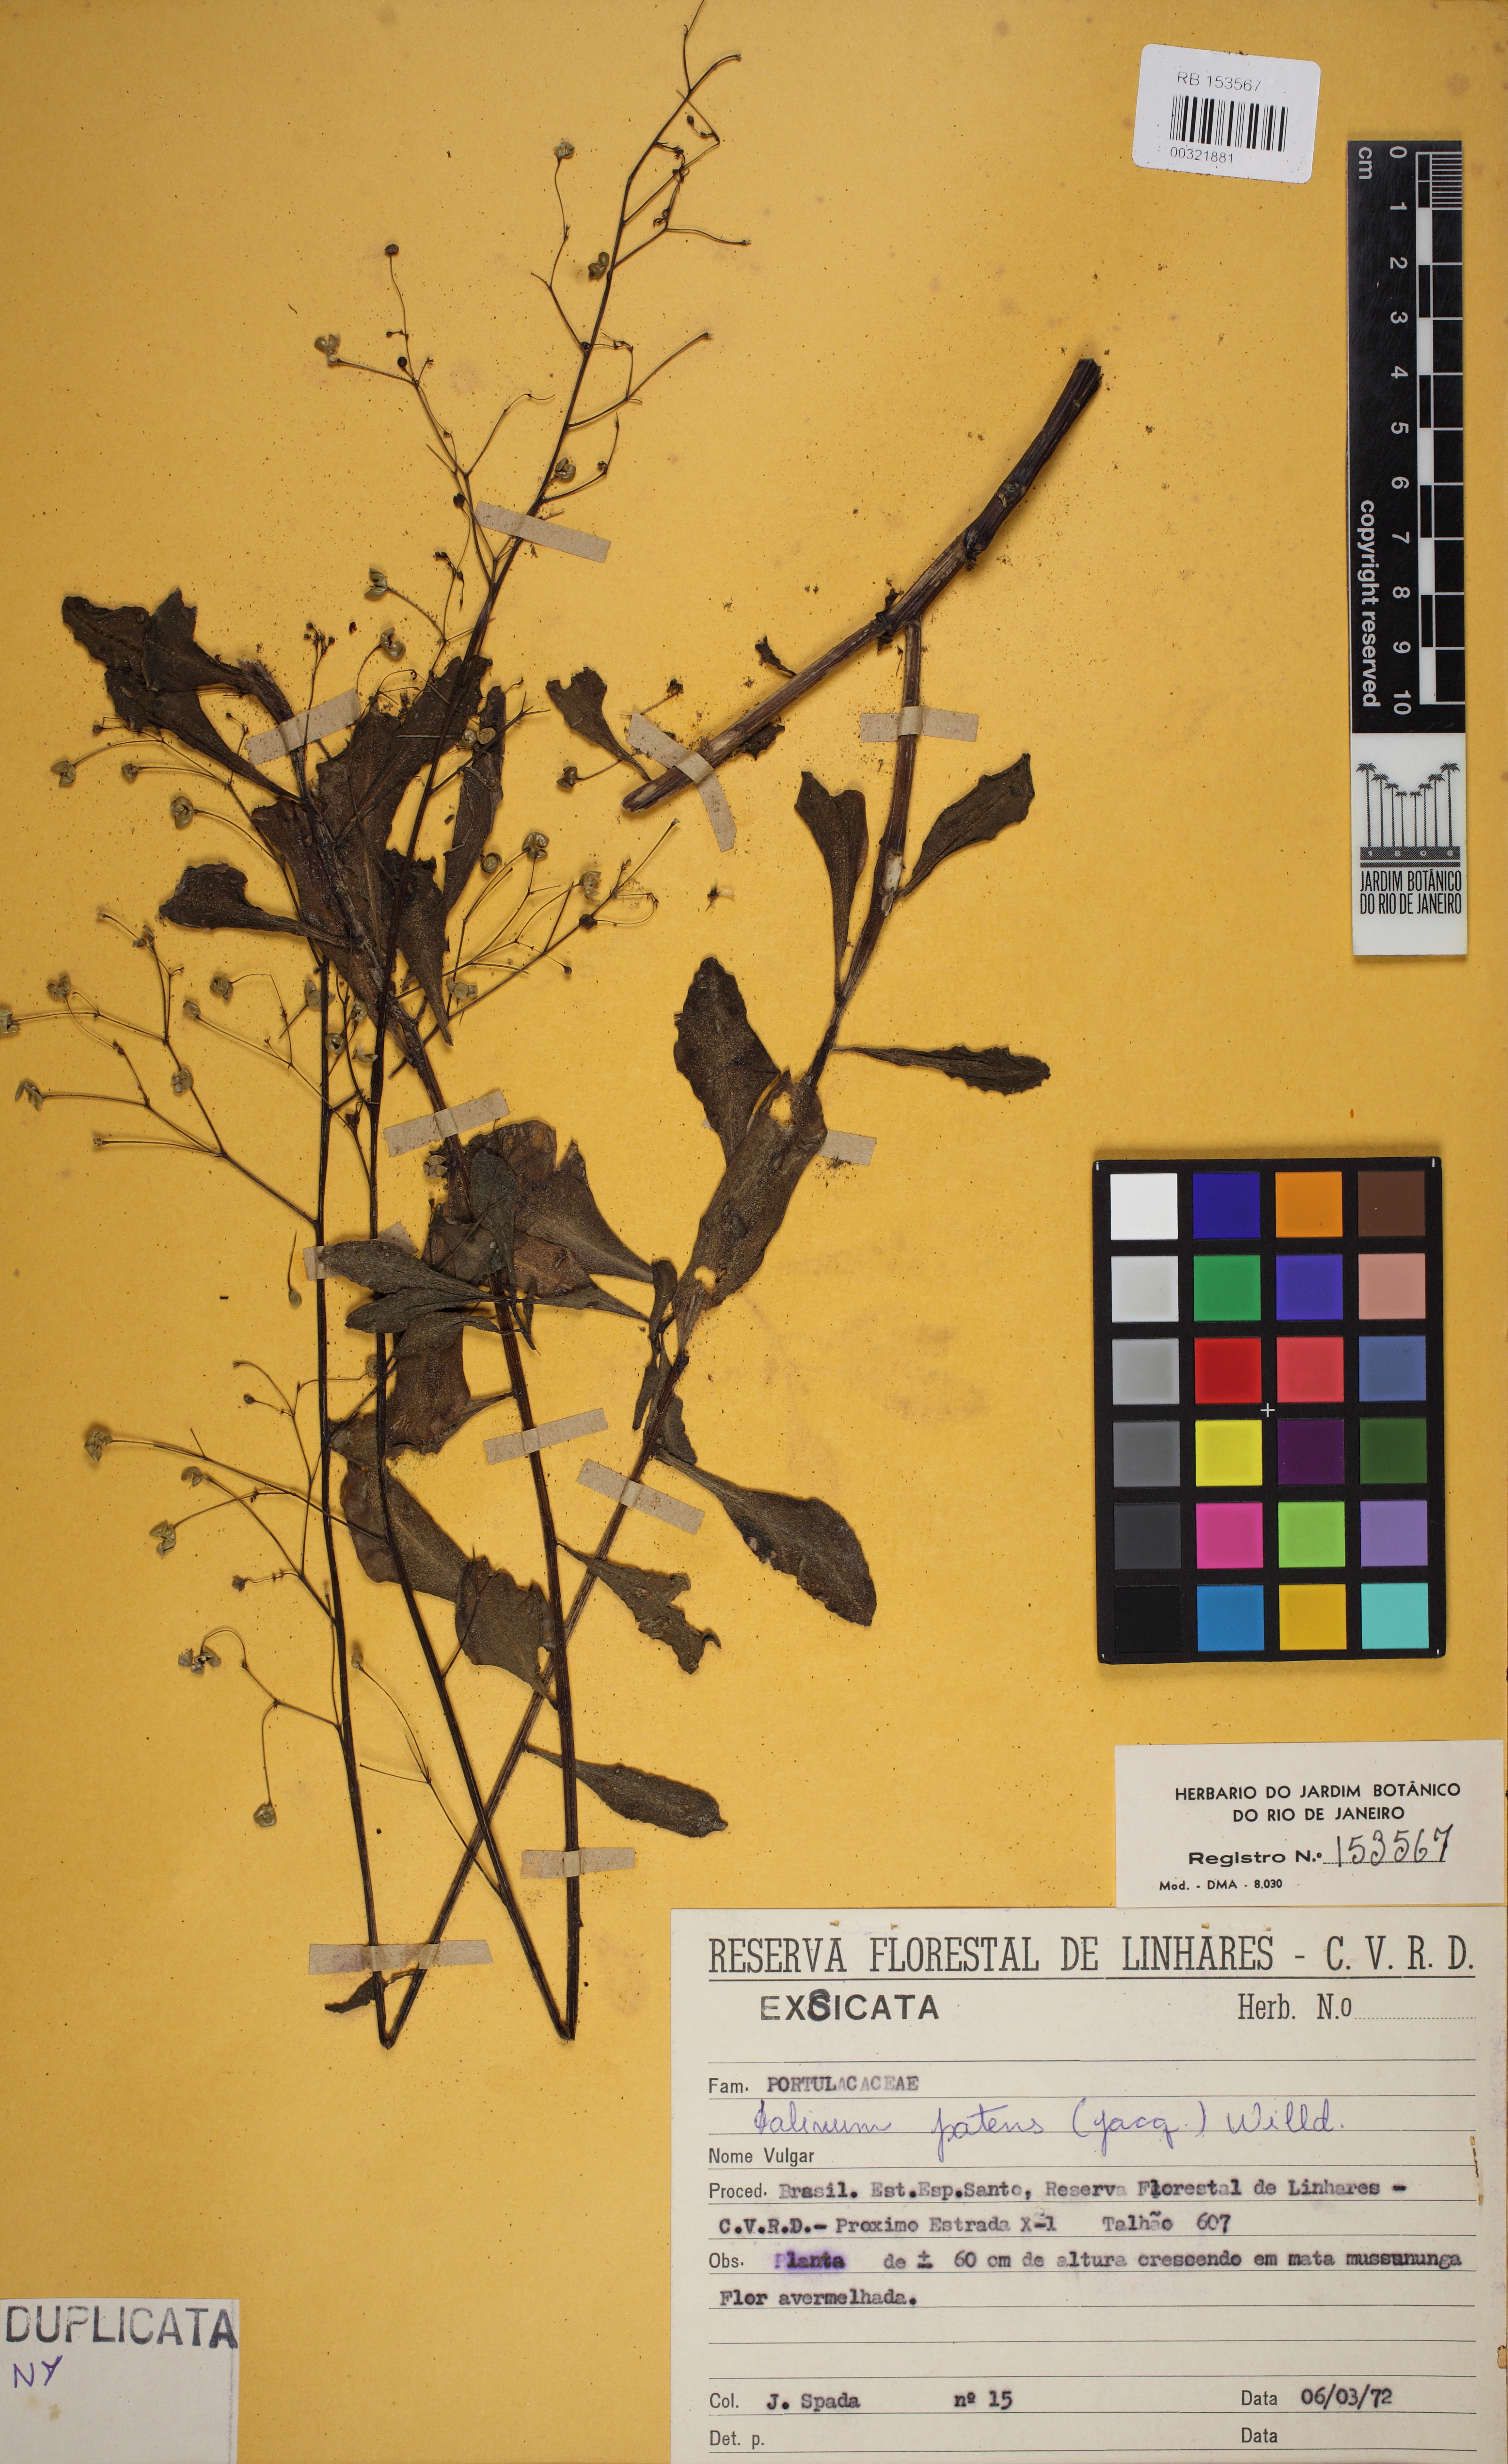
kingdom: Plantae
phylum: Tracheophyta
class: Magnoliopsida
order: Caryophyllales
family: Talinaceae
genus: Talinum
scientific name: Talinum paniculatum
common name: Jewels of opar
